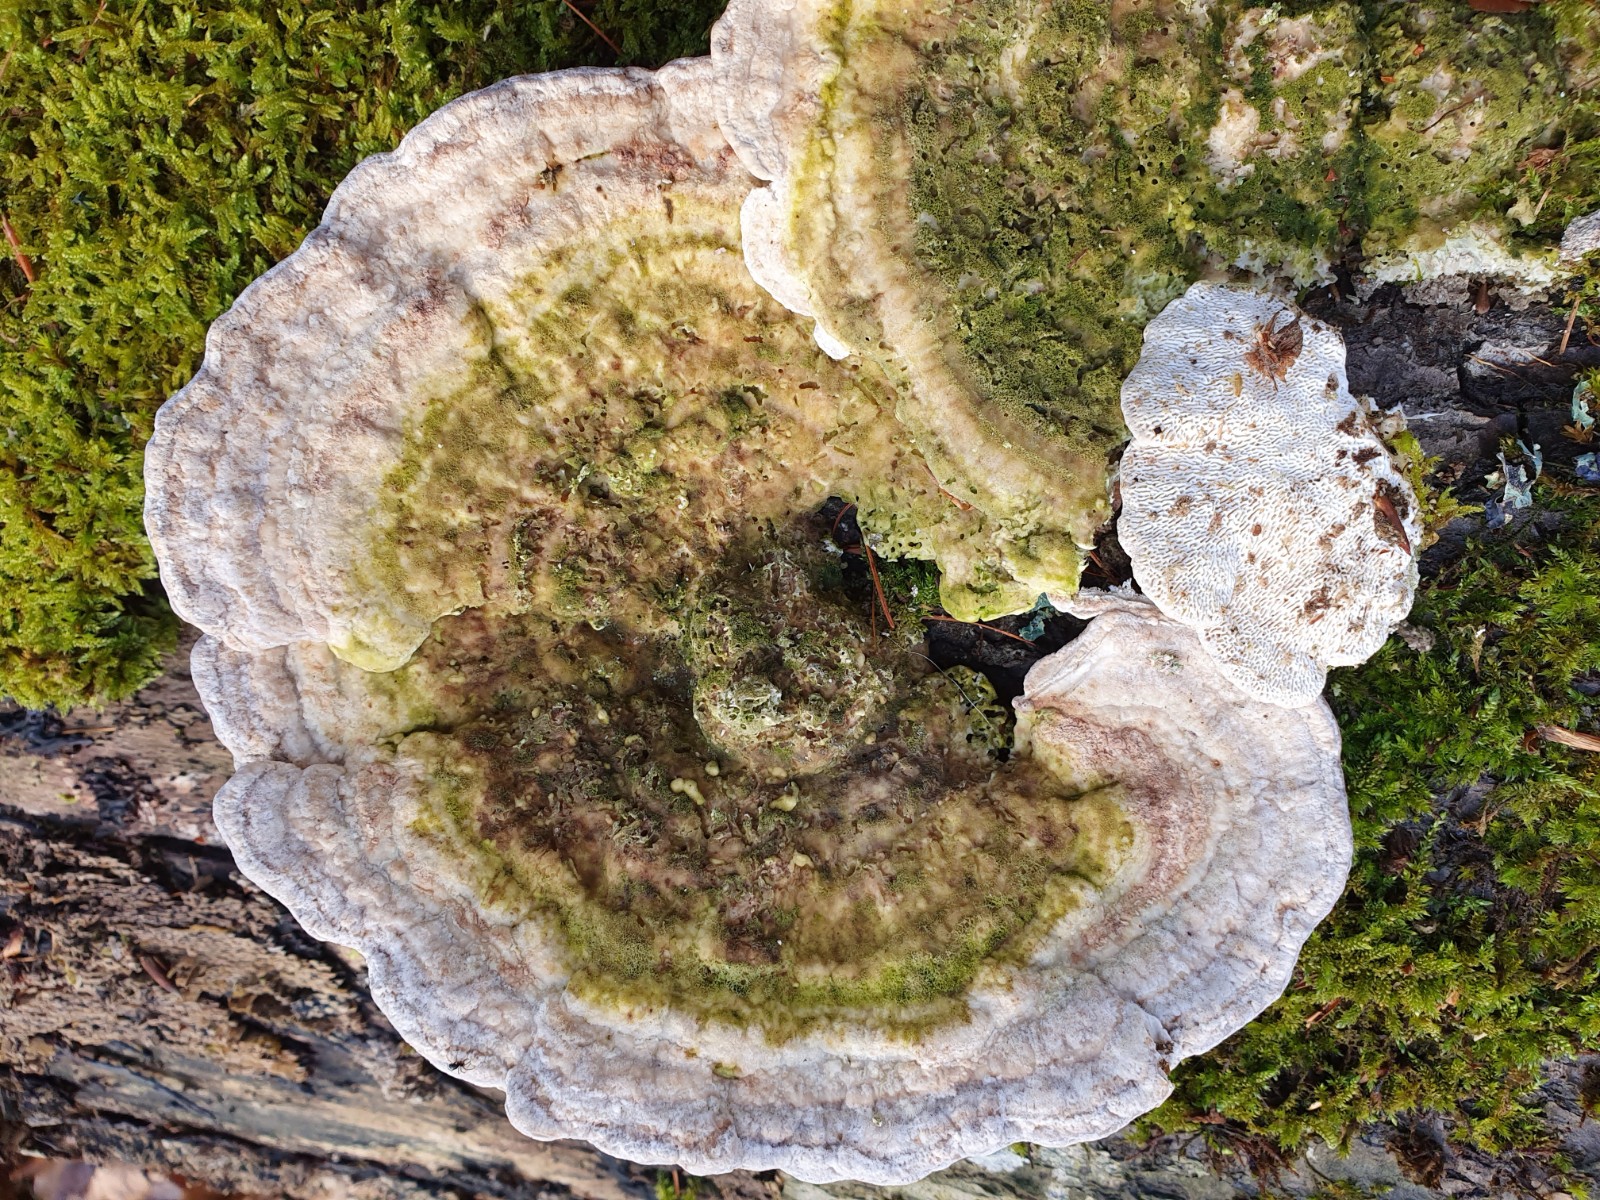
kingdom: Fungi
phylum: Basidiomycota
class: Agaricomycetes
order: Polyporales
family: Polyporaceae
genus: Trametes
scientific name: Trametes gibbosa
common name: puklet læderporesvamp
